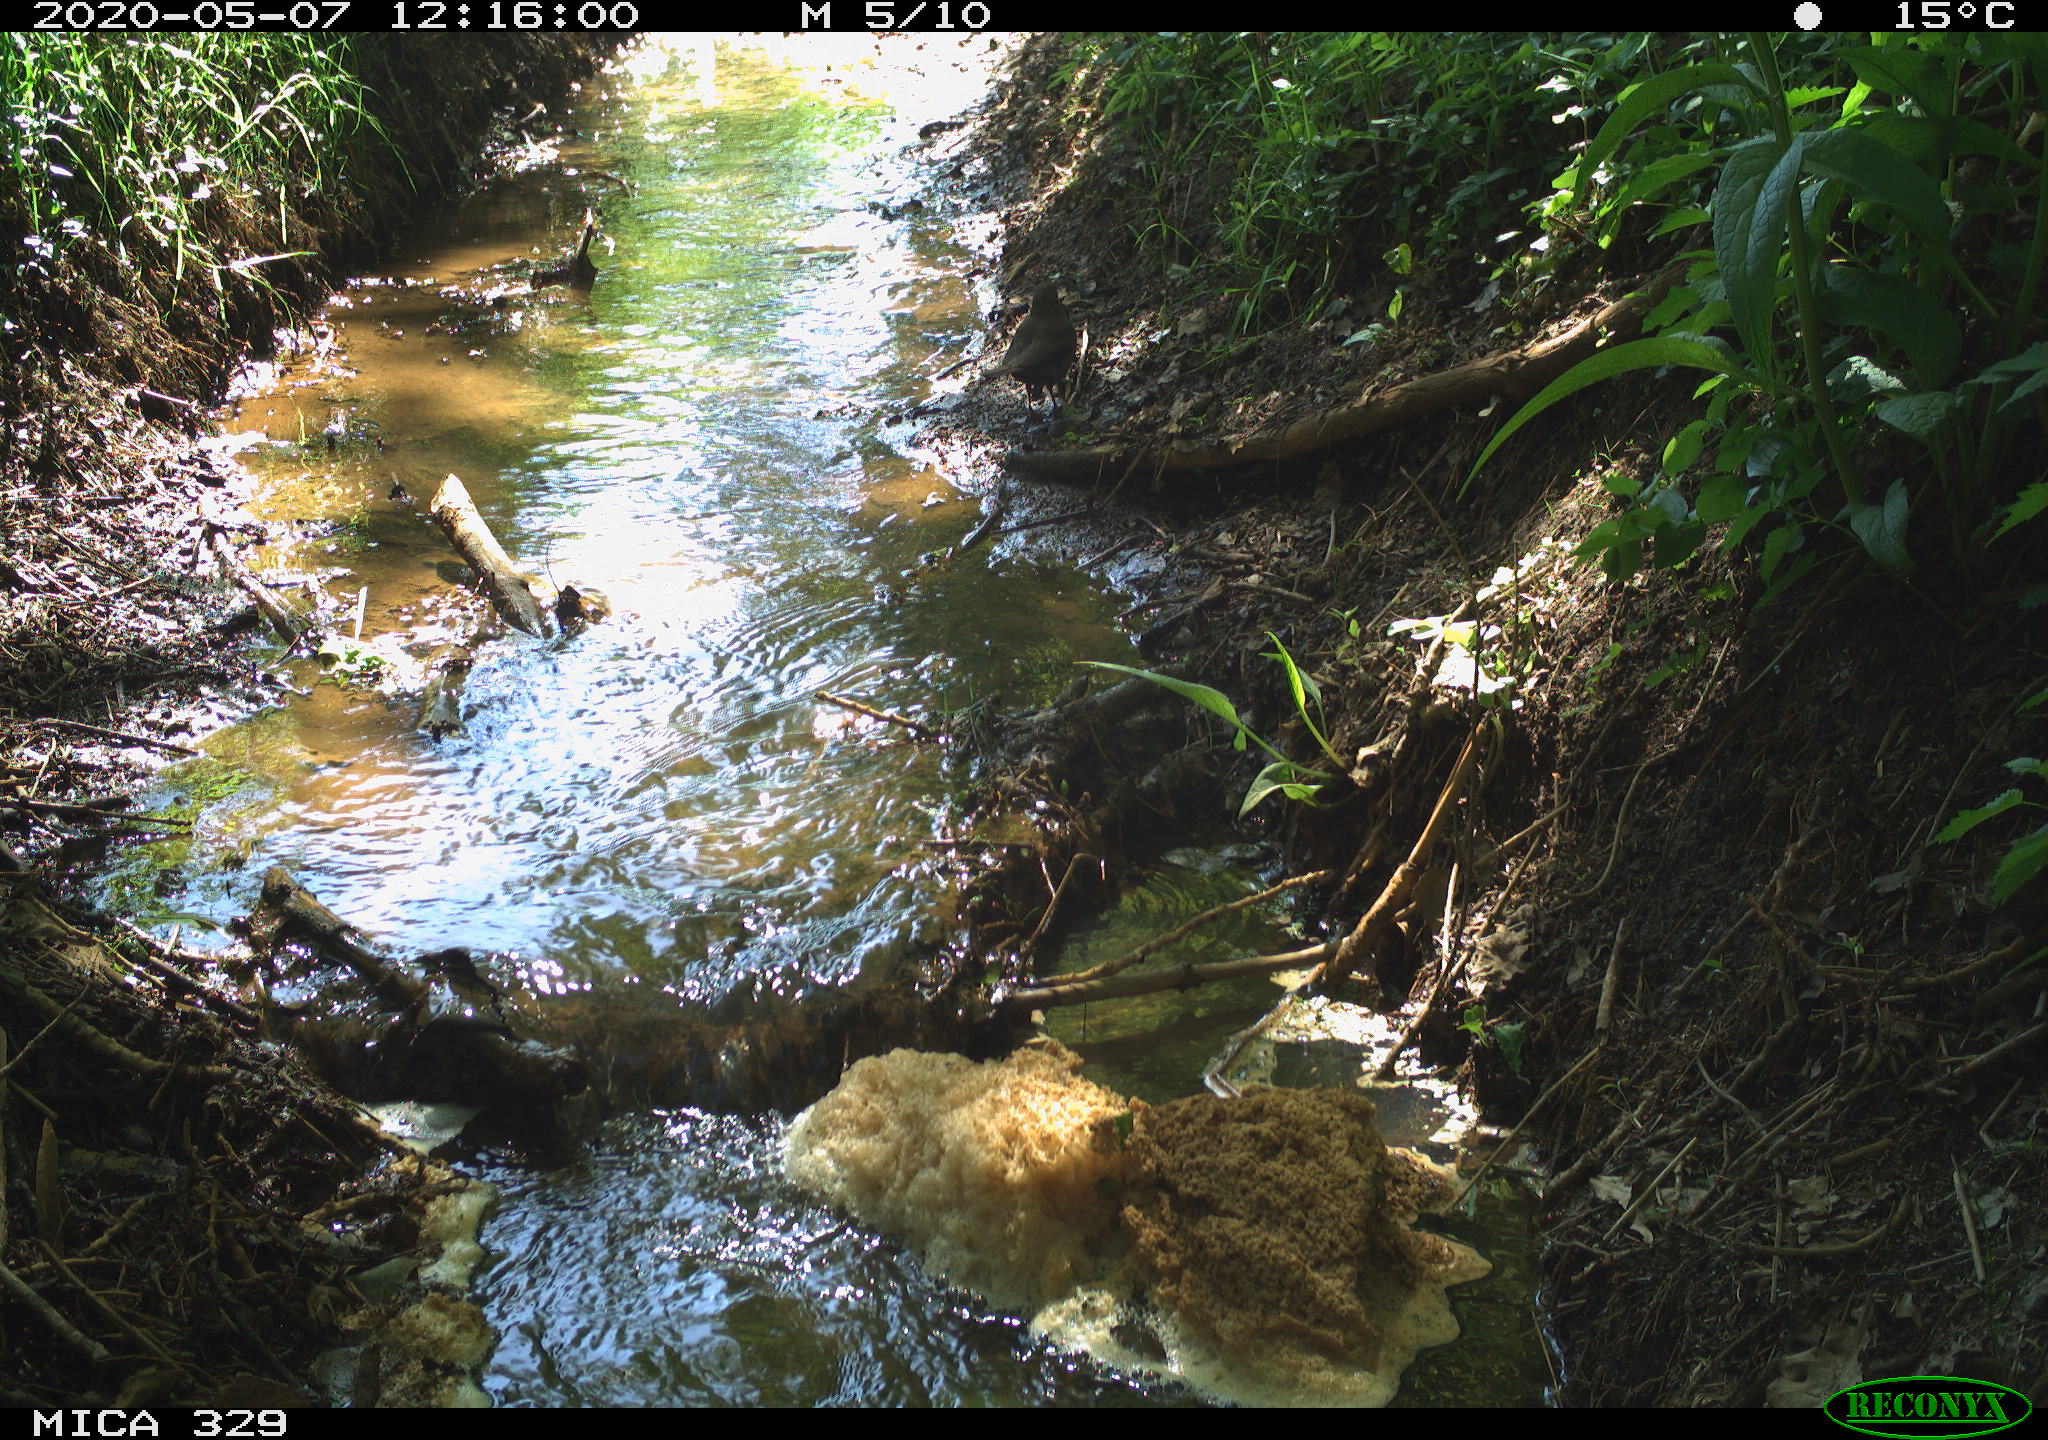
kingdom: Animalia
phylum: Chordata
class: Aves
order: Passeriformes
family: Turdidae
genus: Turdus
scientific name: Turdus merula
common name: Common blackbird
